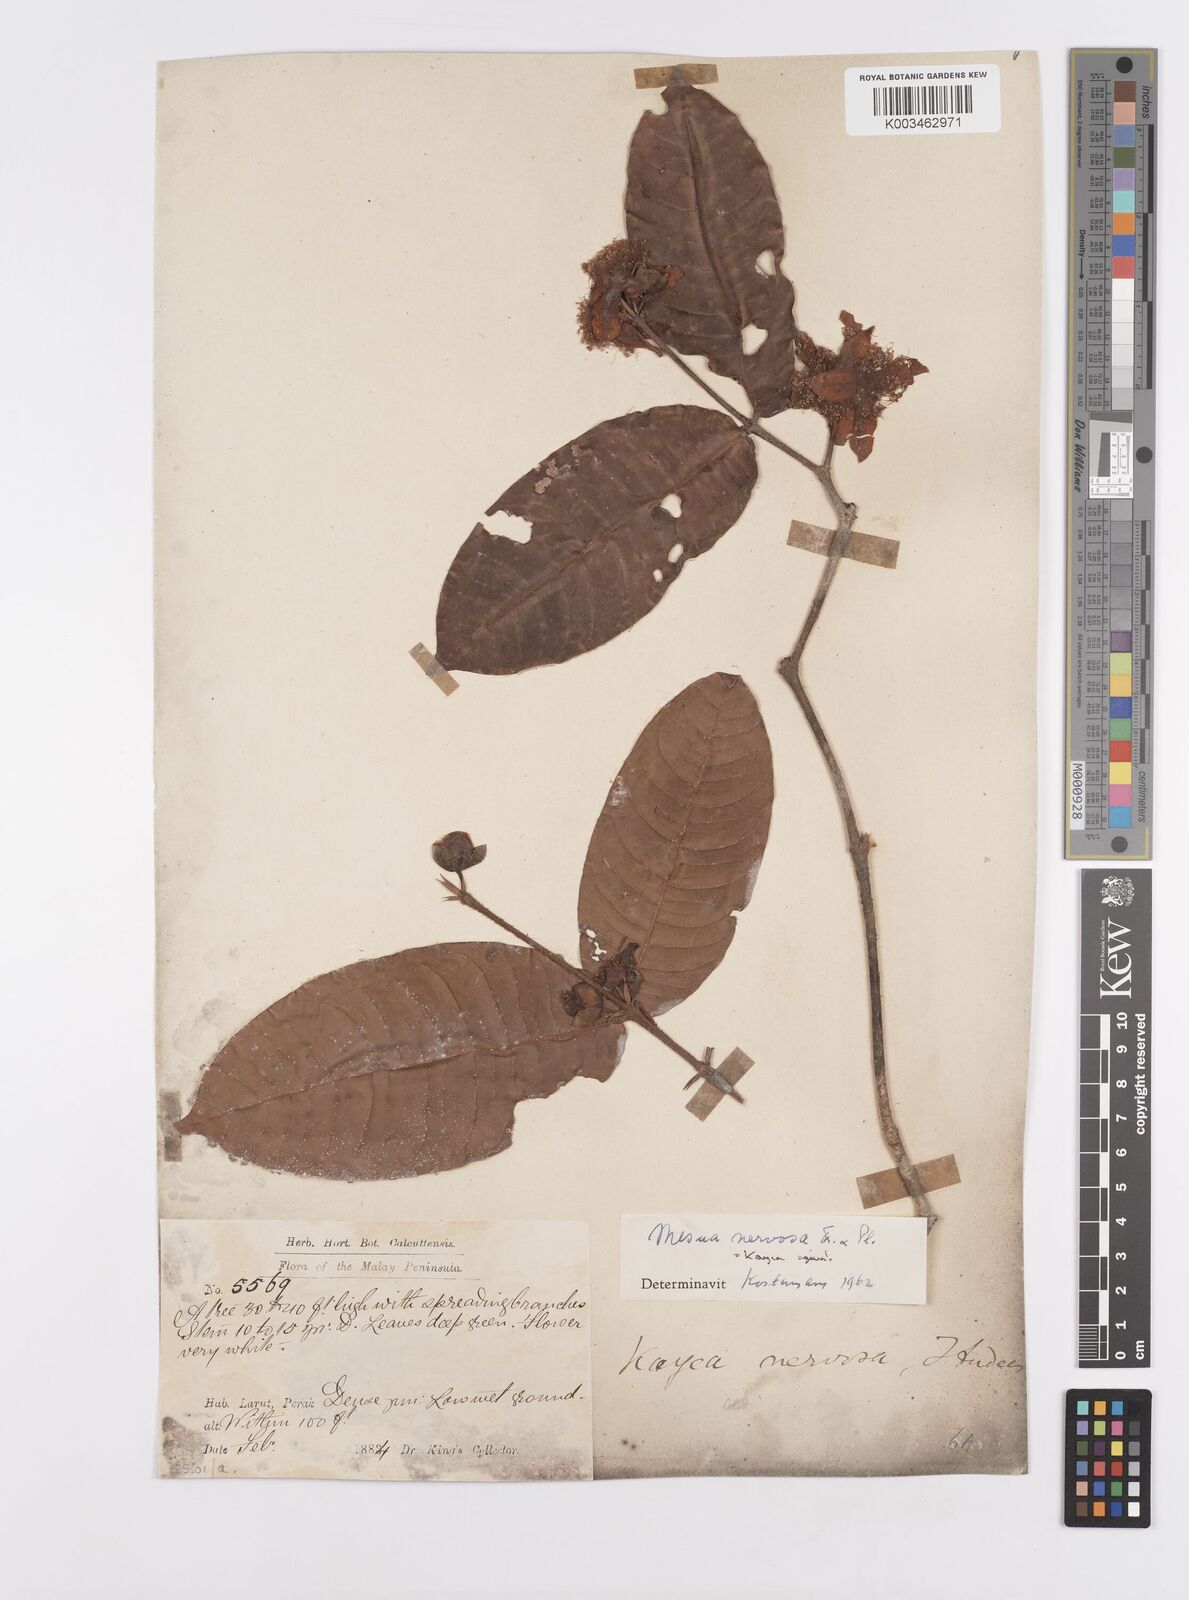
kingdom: Plantae
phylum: Tracheophyta
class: Magnoliopsida
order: Malpighiales
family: Calophyllaceae
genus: Kayea
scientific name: Kayea nervosa
